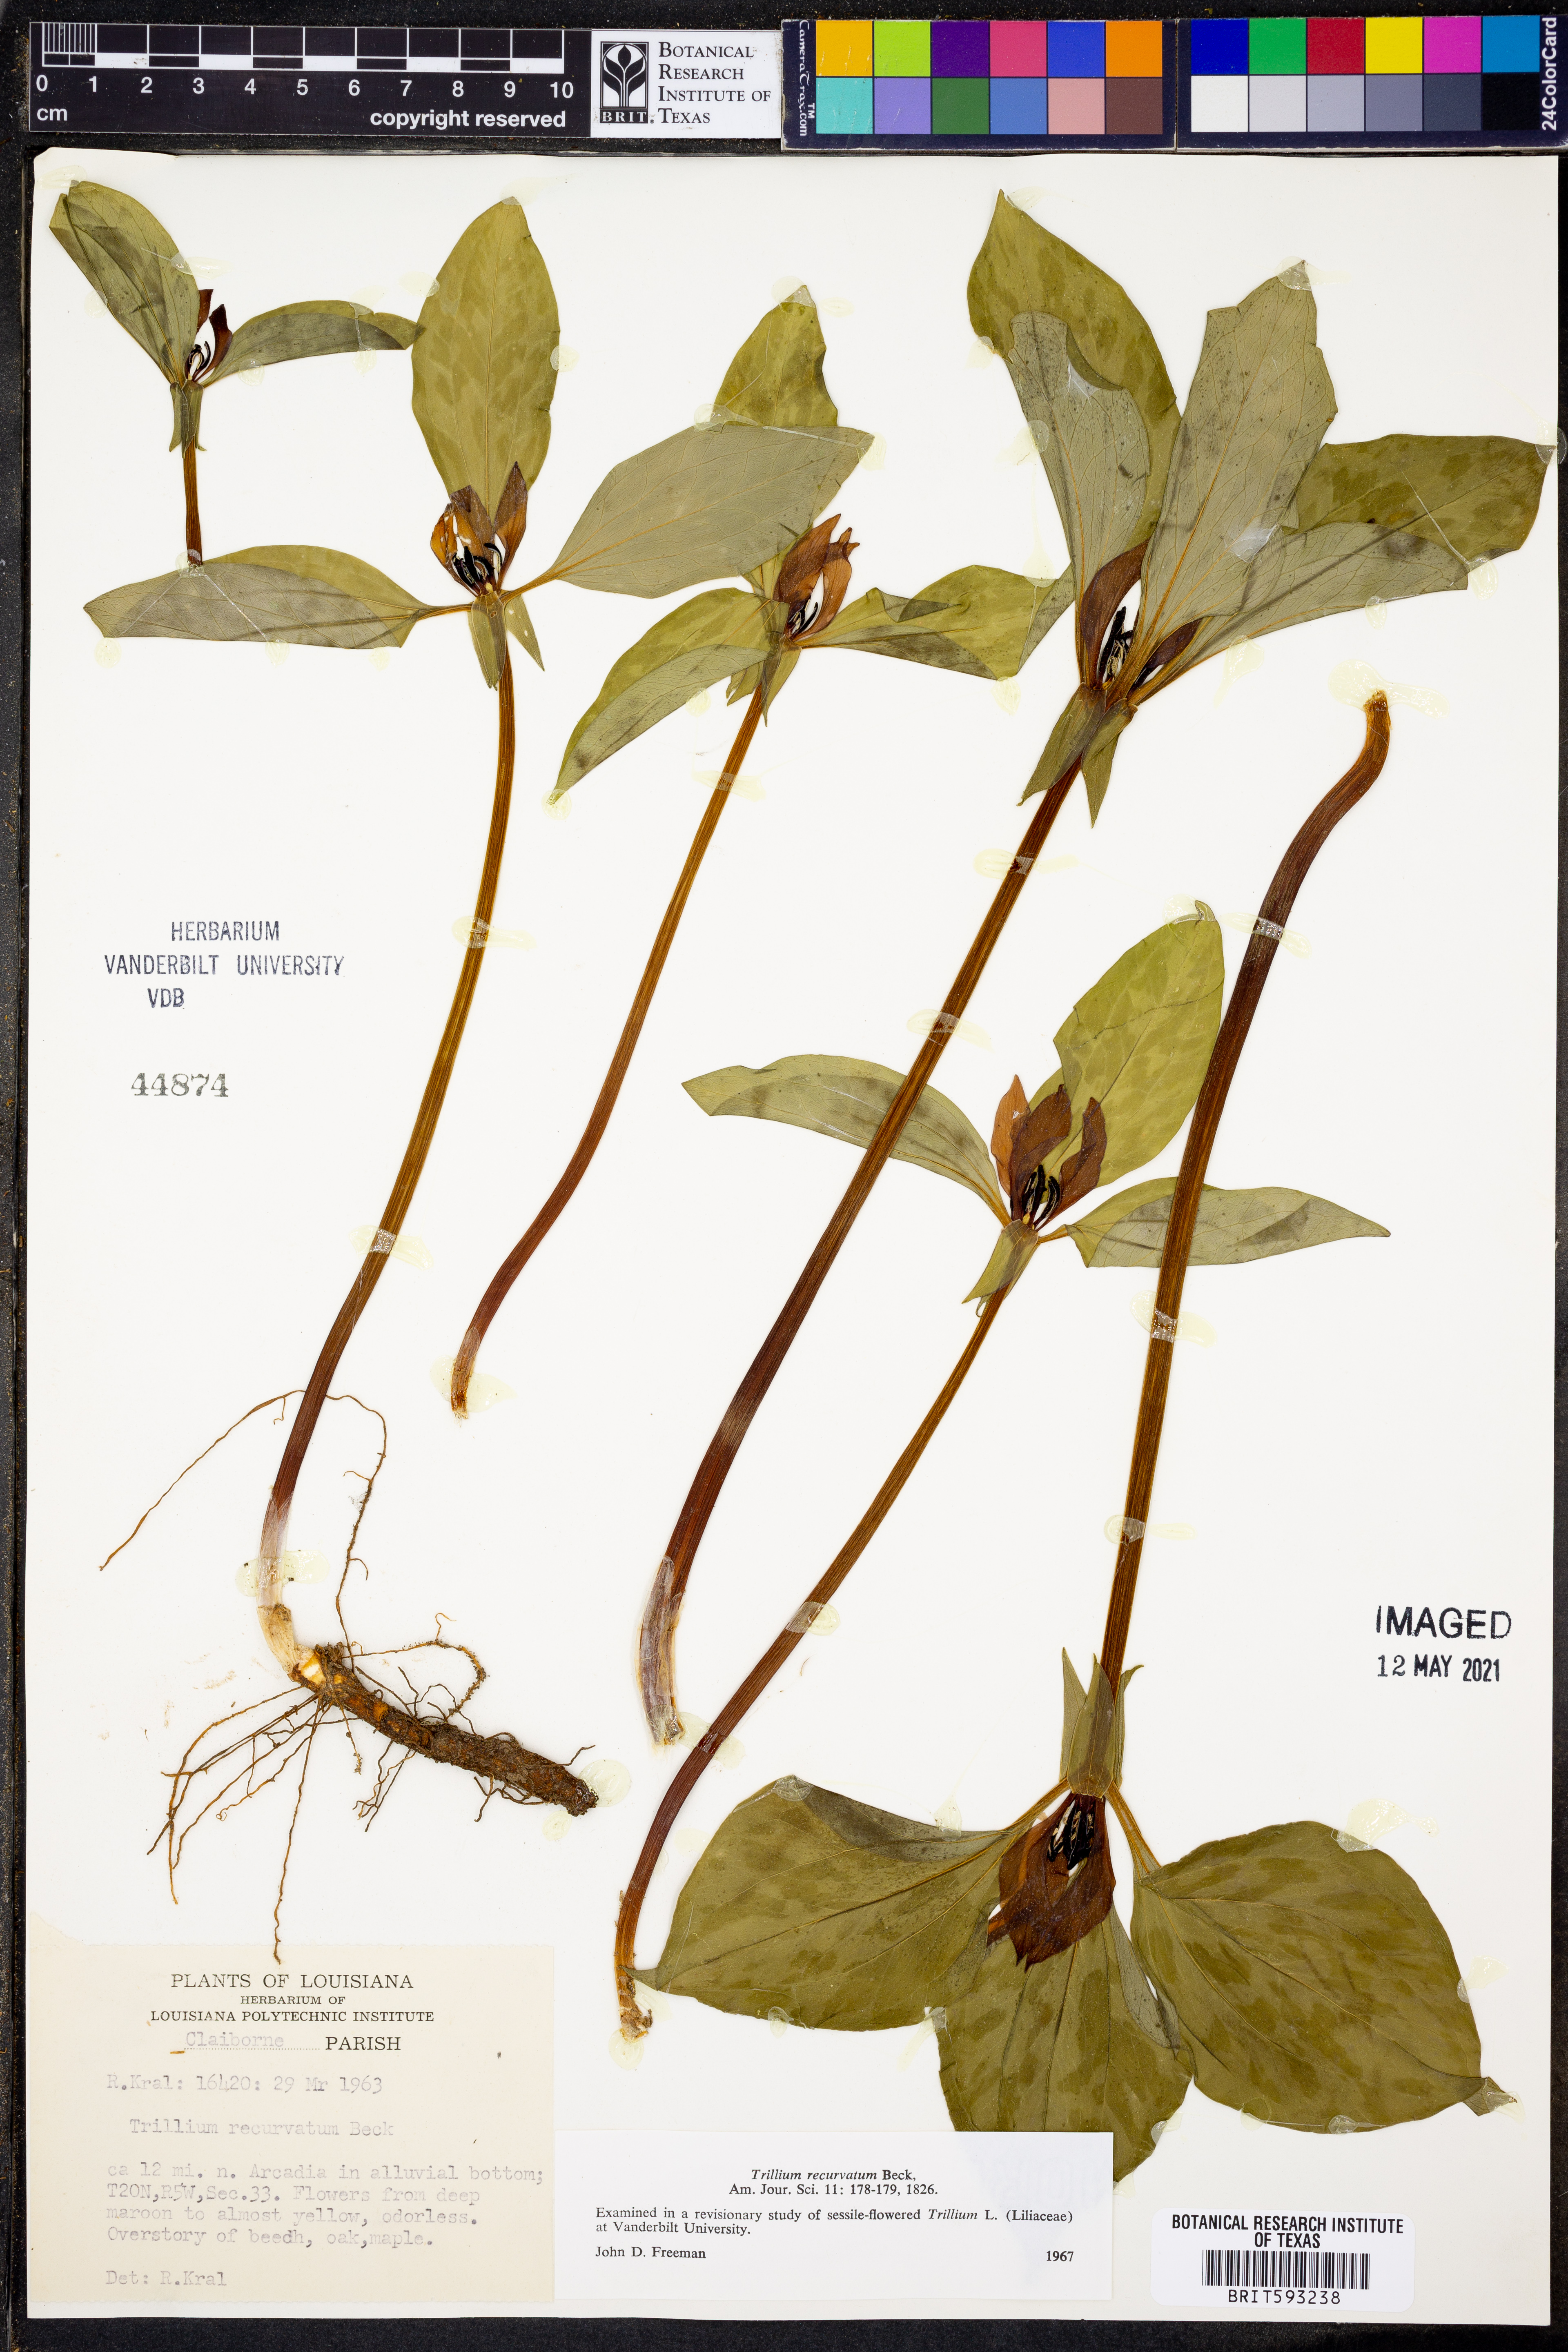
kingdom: Plantae
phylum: Tracheophyta
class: Liliopsida
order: Liliales
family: Melanthiaceae
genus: Trillium
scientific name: Trillium recurvatum
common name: Bloody butcher
